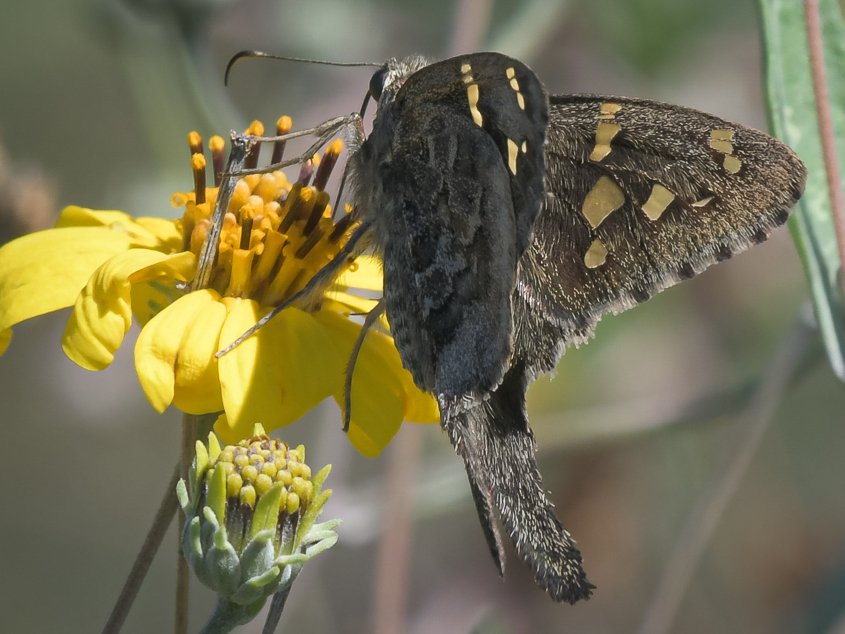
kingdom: Animalia
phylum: Arthropoda
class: Insecta
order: Lepidoptera
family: Hesperiidae
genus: Urbanus
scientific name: Urbanus dorantes
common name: Dorantes Longtail
